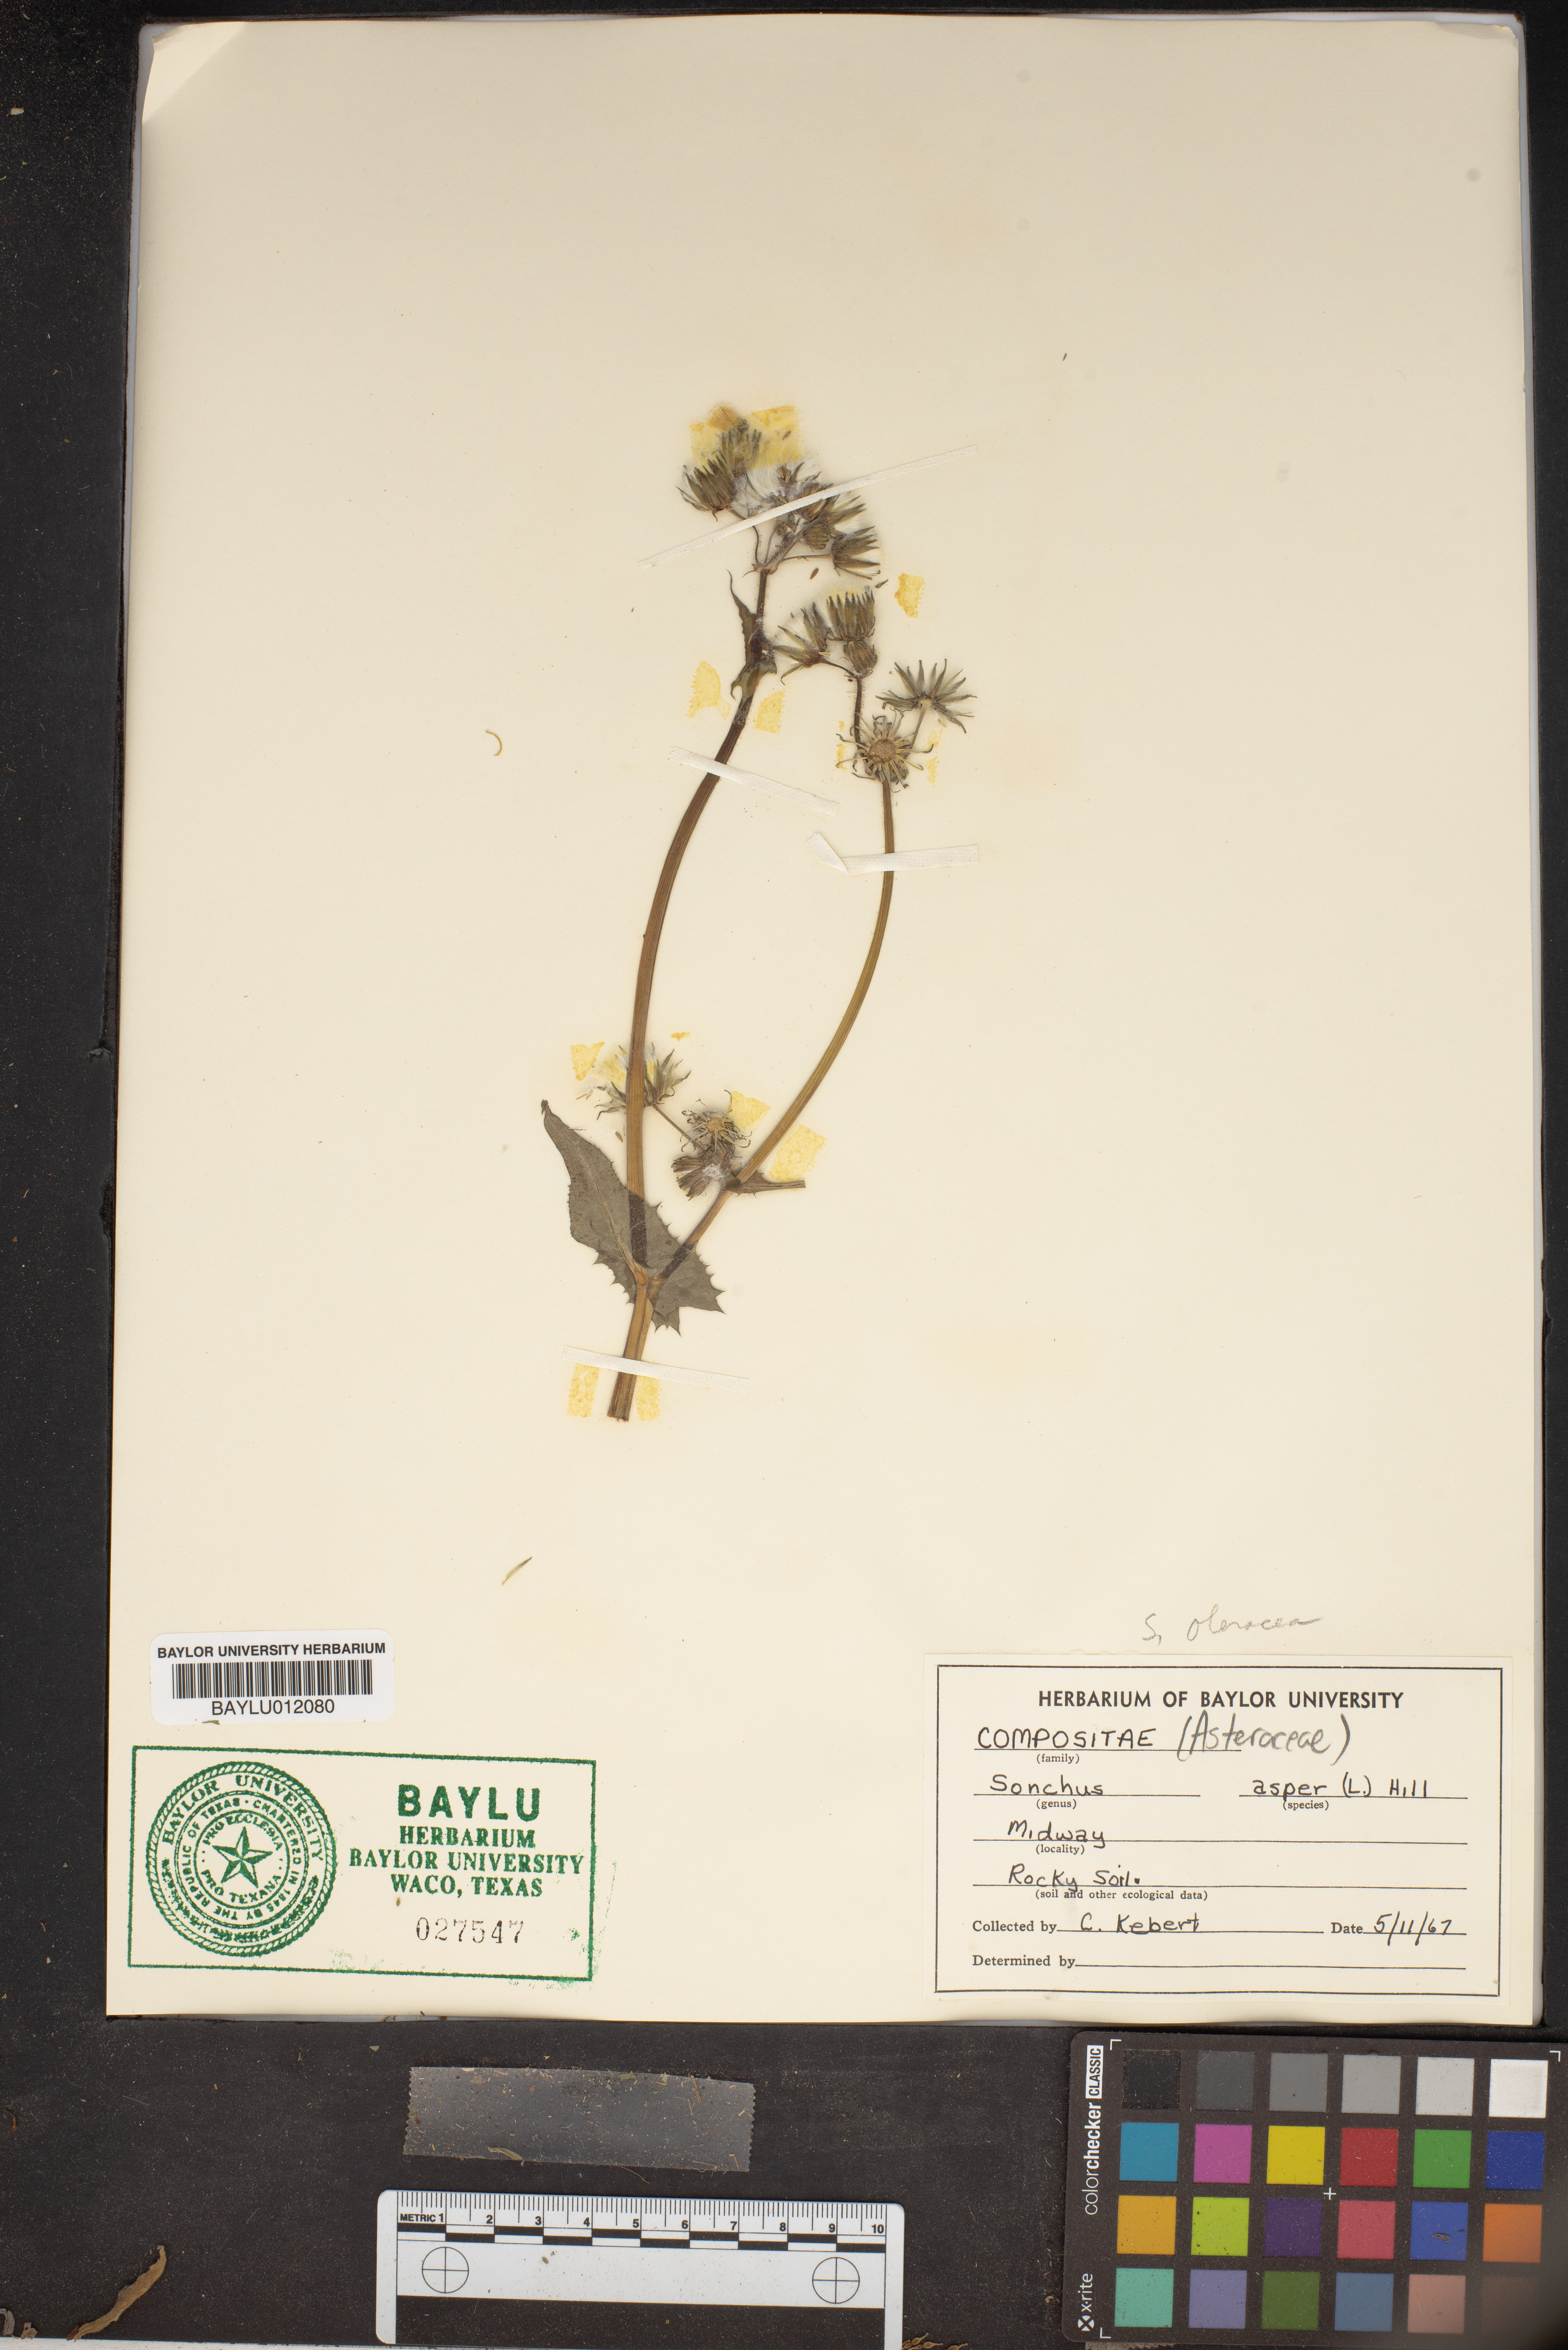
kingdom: Plantae
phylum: Tracheophyta
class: Magnoliopsida
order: Asterales
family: Asteraceae
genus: Sonchus
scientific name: Sonchus asper
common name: Prickly sow-thistle
